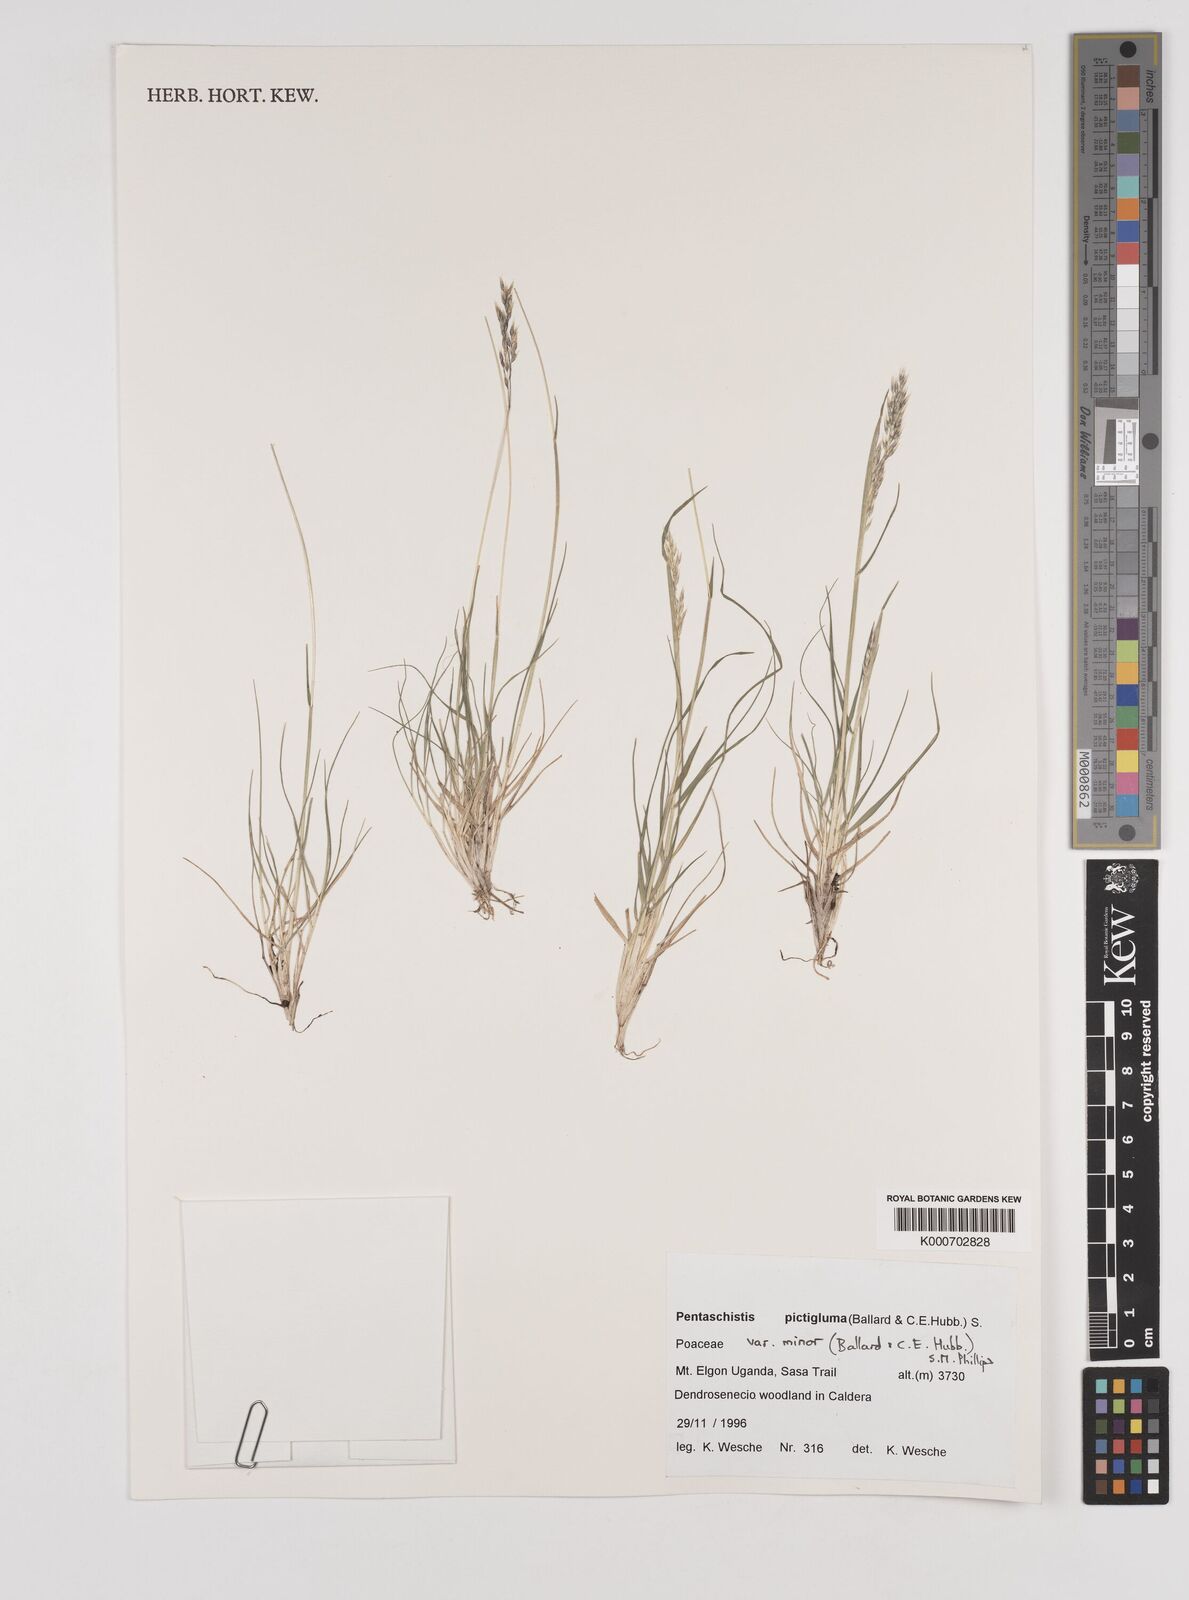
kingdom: Plantae
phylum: Tracheophyta
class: Liliopsida
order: Poales
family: Poaceae
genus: Pentameris
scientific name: Pentameris minor
